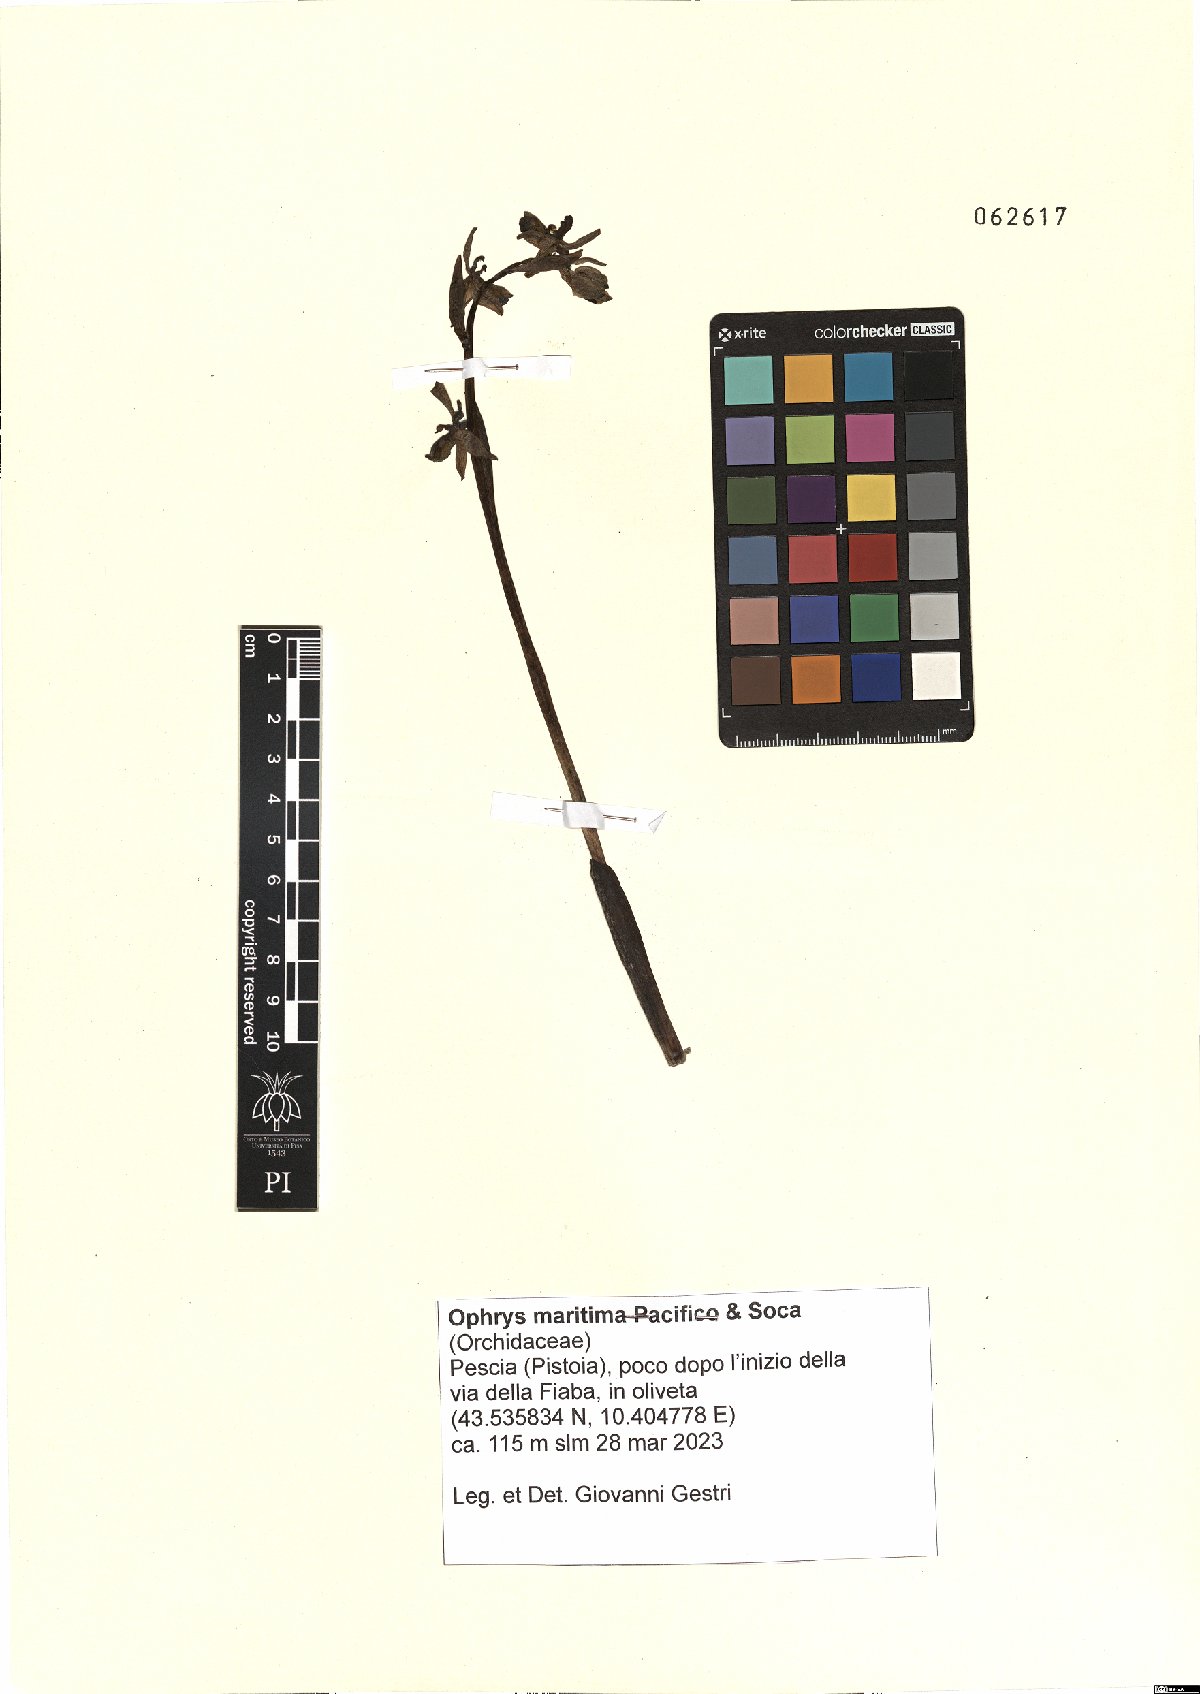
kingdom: Plantae
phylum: Tracheophyta
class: Liliopsida
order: Asparagales
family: Orchidaceae
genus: Ophrys
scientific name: Ophrys sphegodes
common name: Early spider-orchid
